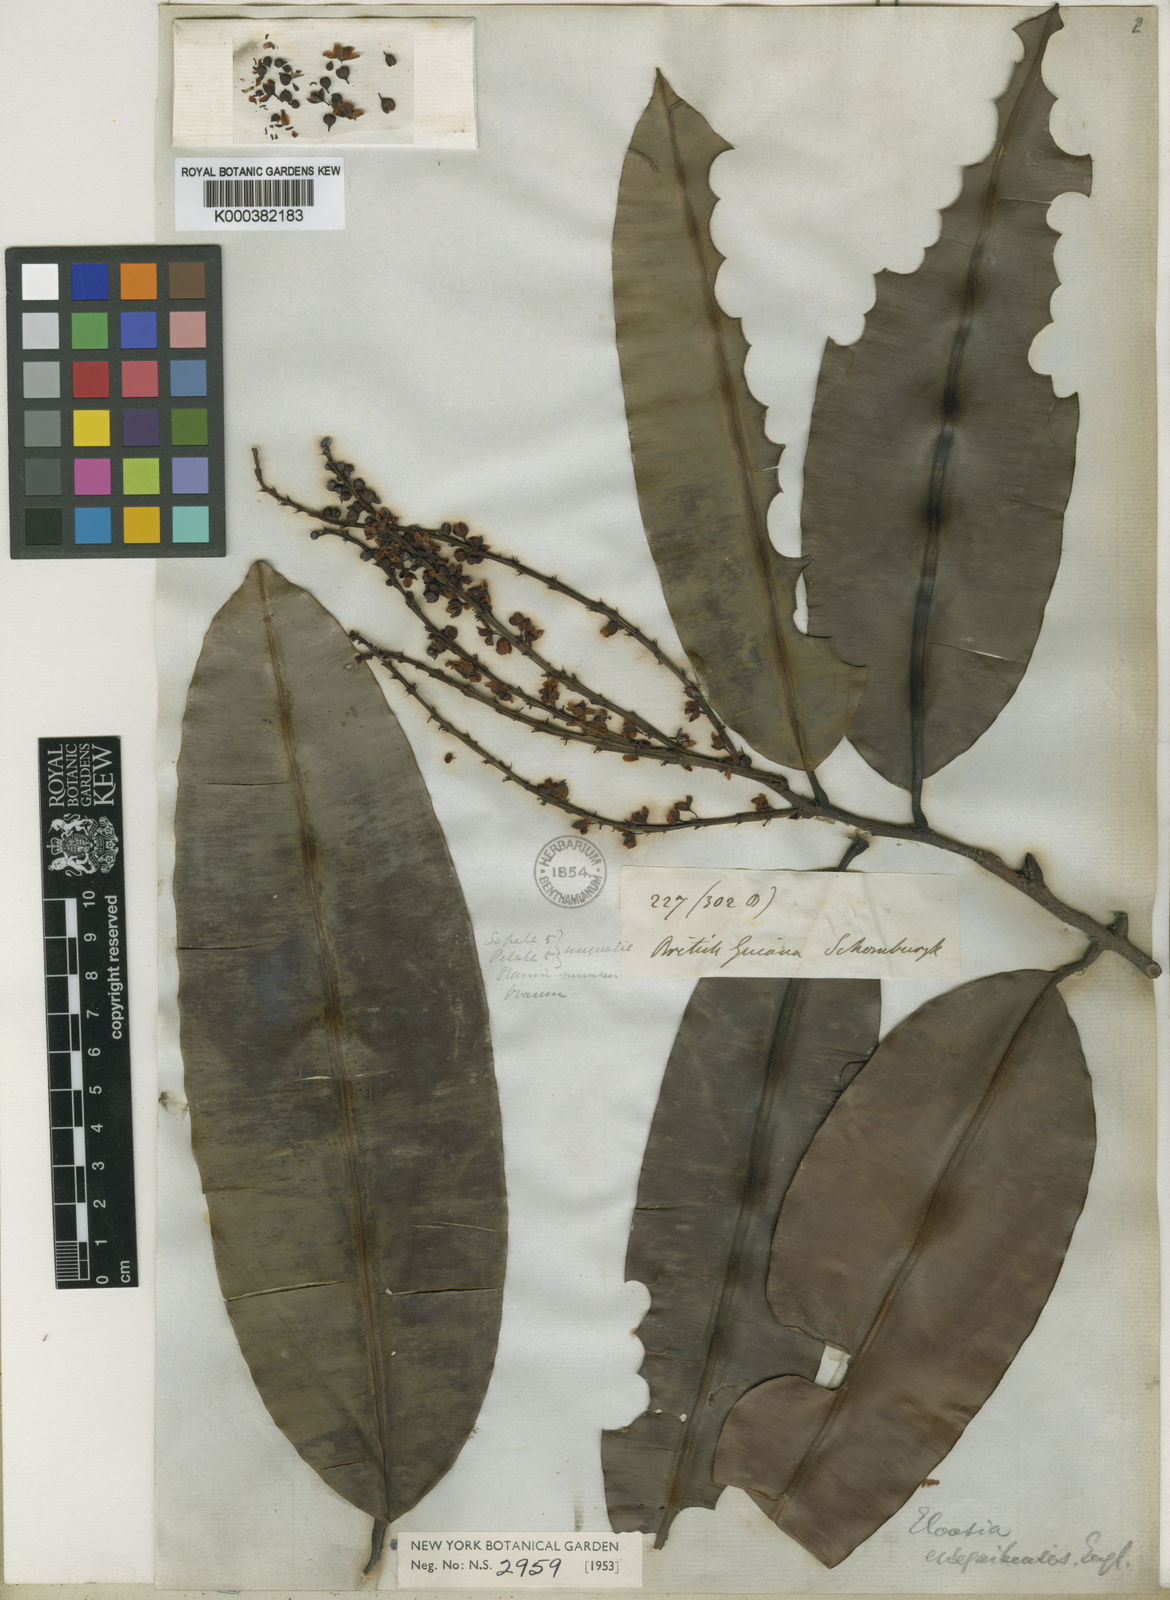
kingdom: Plantae
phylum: Tracheophyta
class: Magnoliopsida
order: Malpighiales
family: Ochnaceae
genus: Elvasia
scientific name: Elvasia essequibensis
